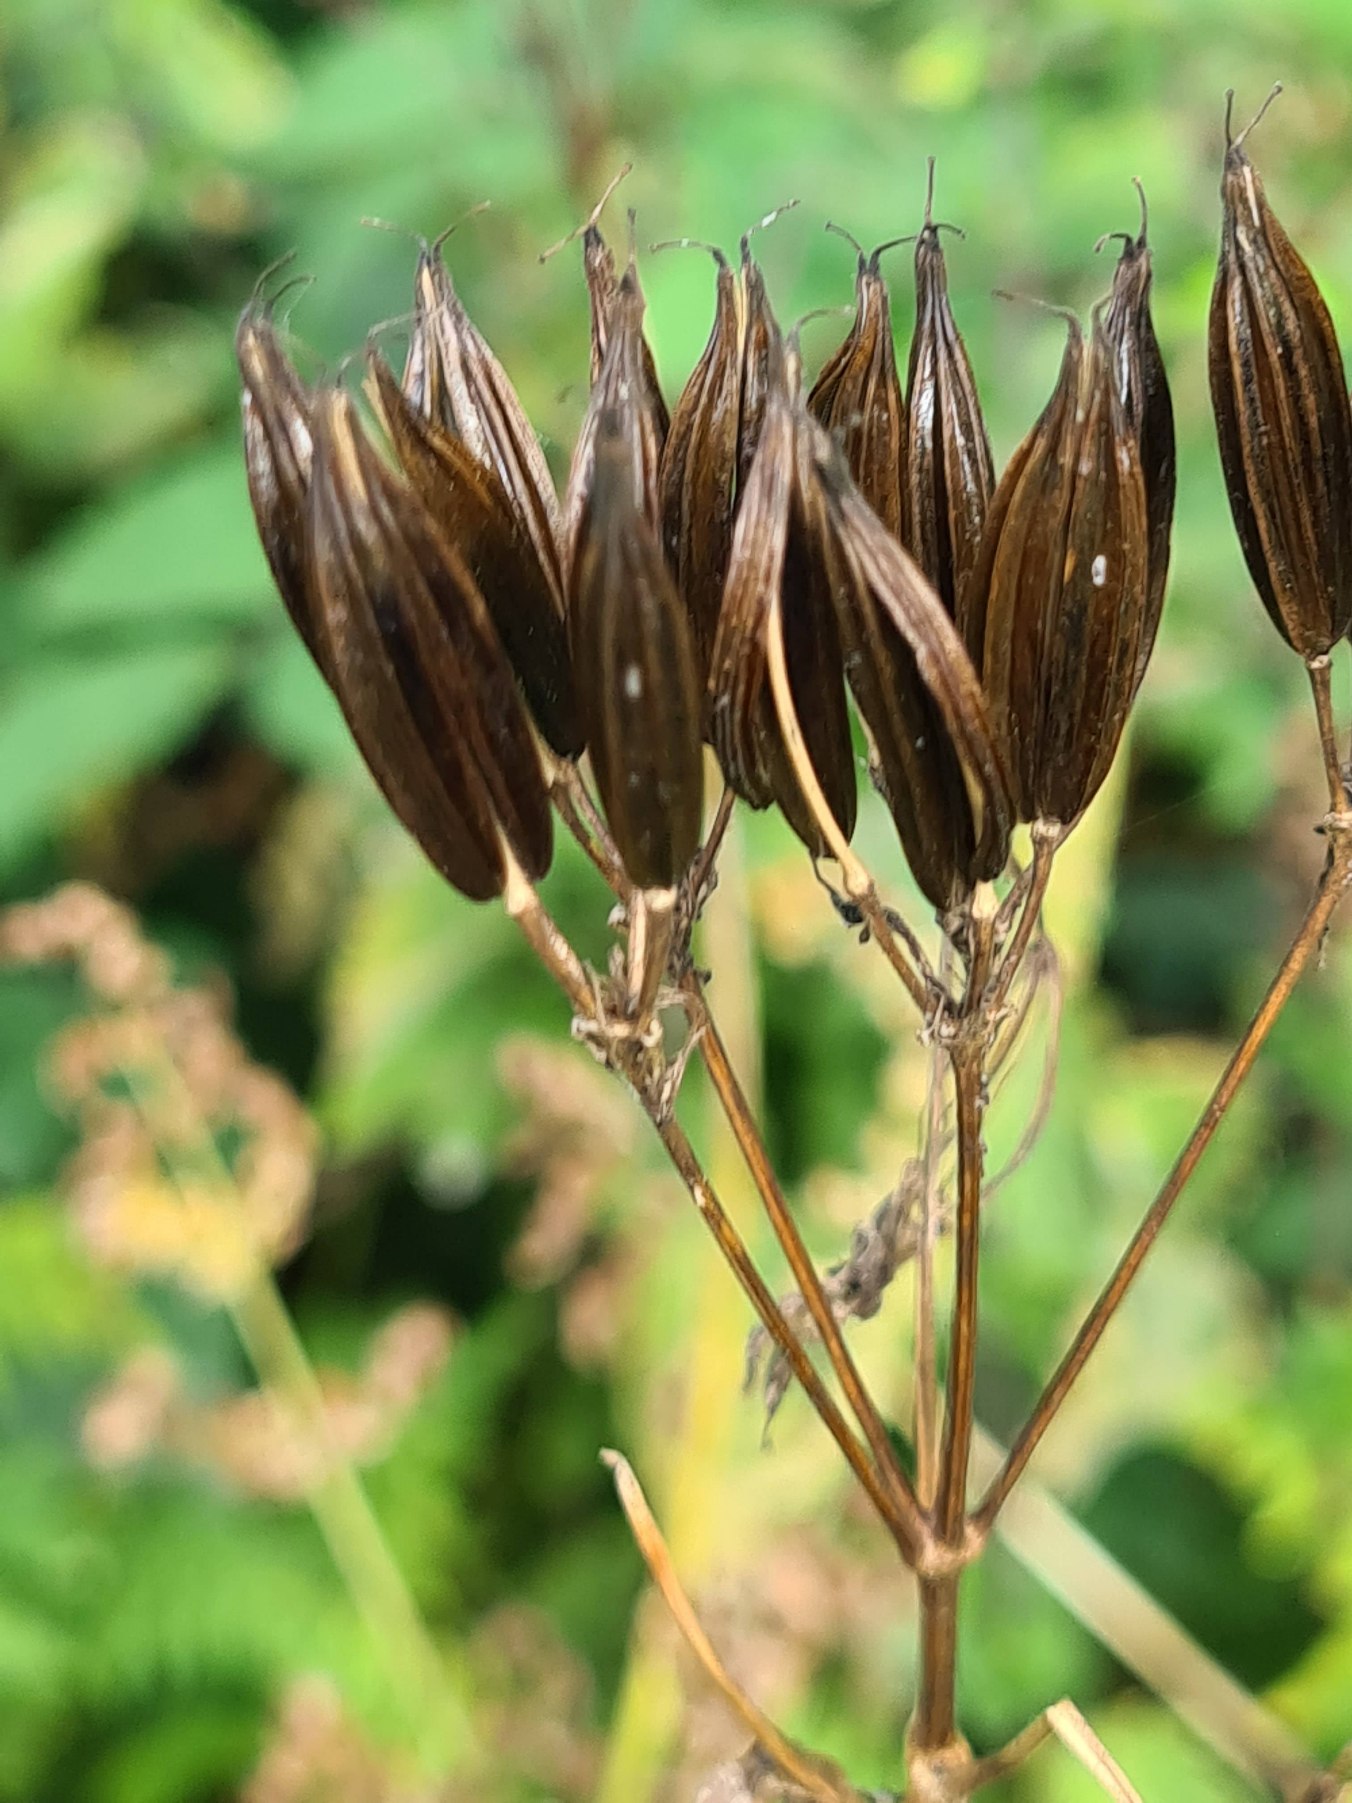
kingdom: Plantae
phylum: Tracheophyta
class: Magnoliopsida
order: Apiales
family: Apiaceae
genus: Myrrhis
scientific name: Myrrhis odorata
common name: Sødskærm
